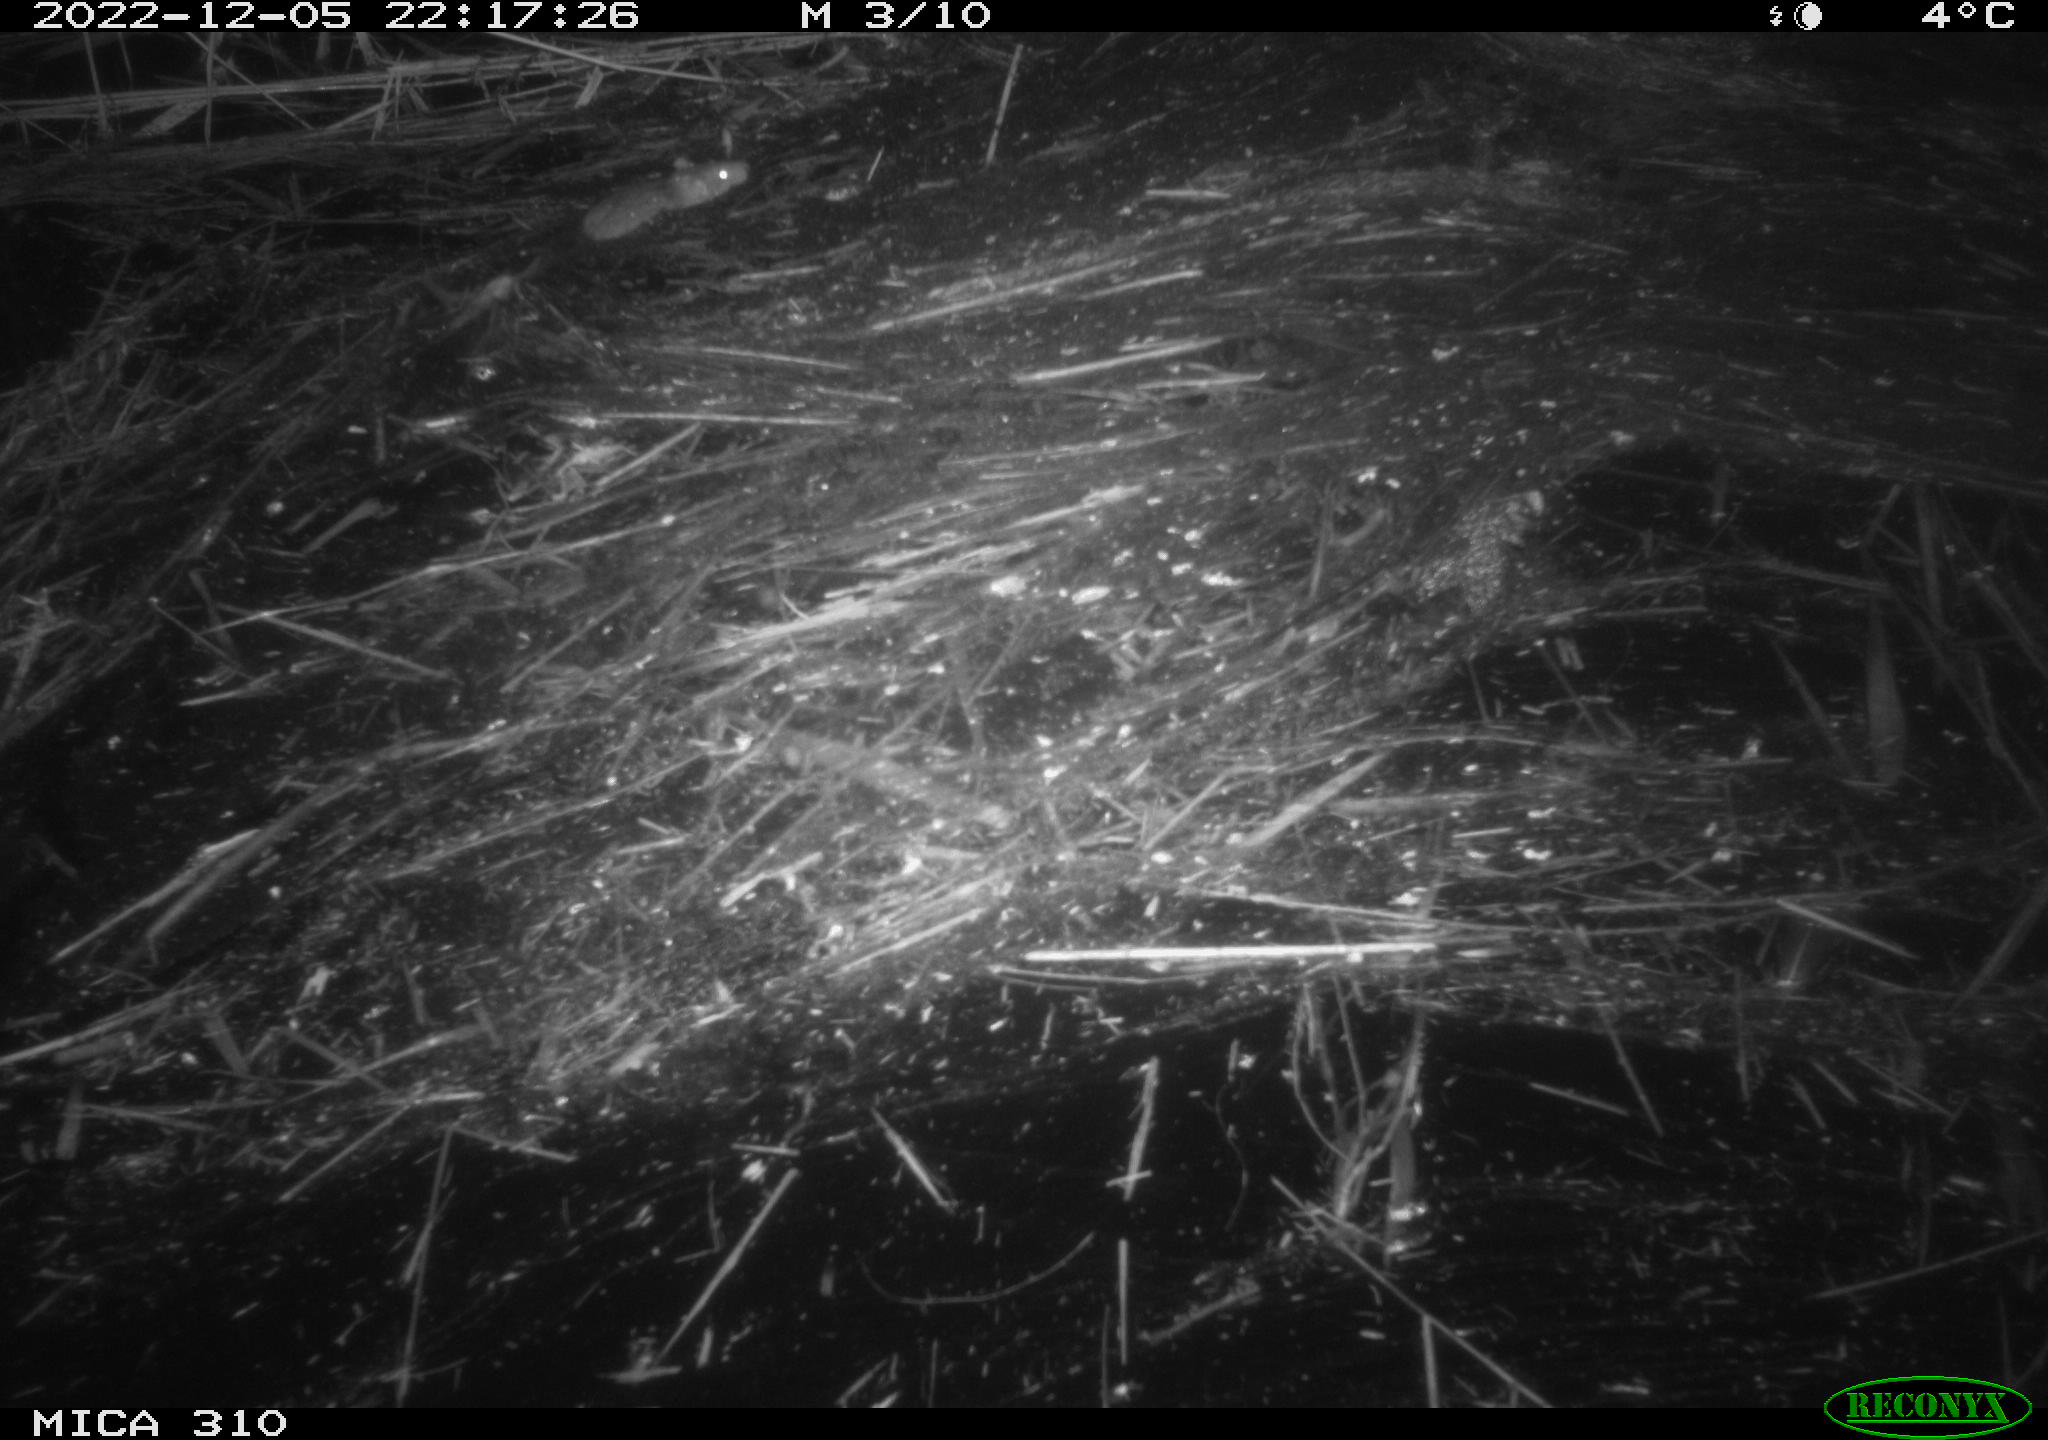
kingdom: Animalia
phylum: Chordata
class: Mammalia
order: Rodentia
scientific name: Rodentia
